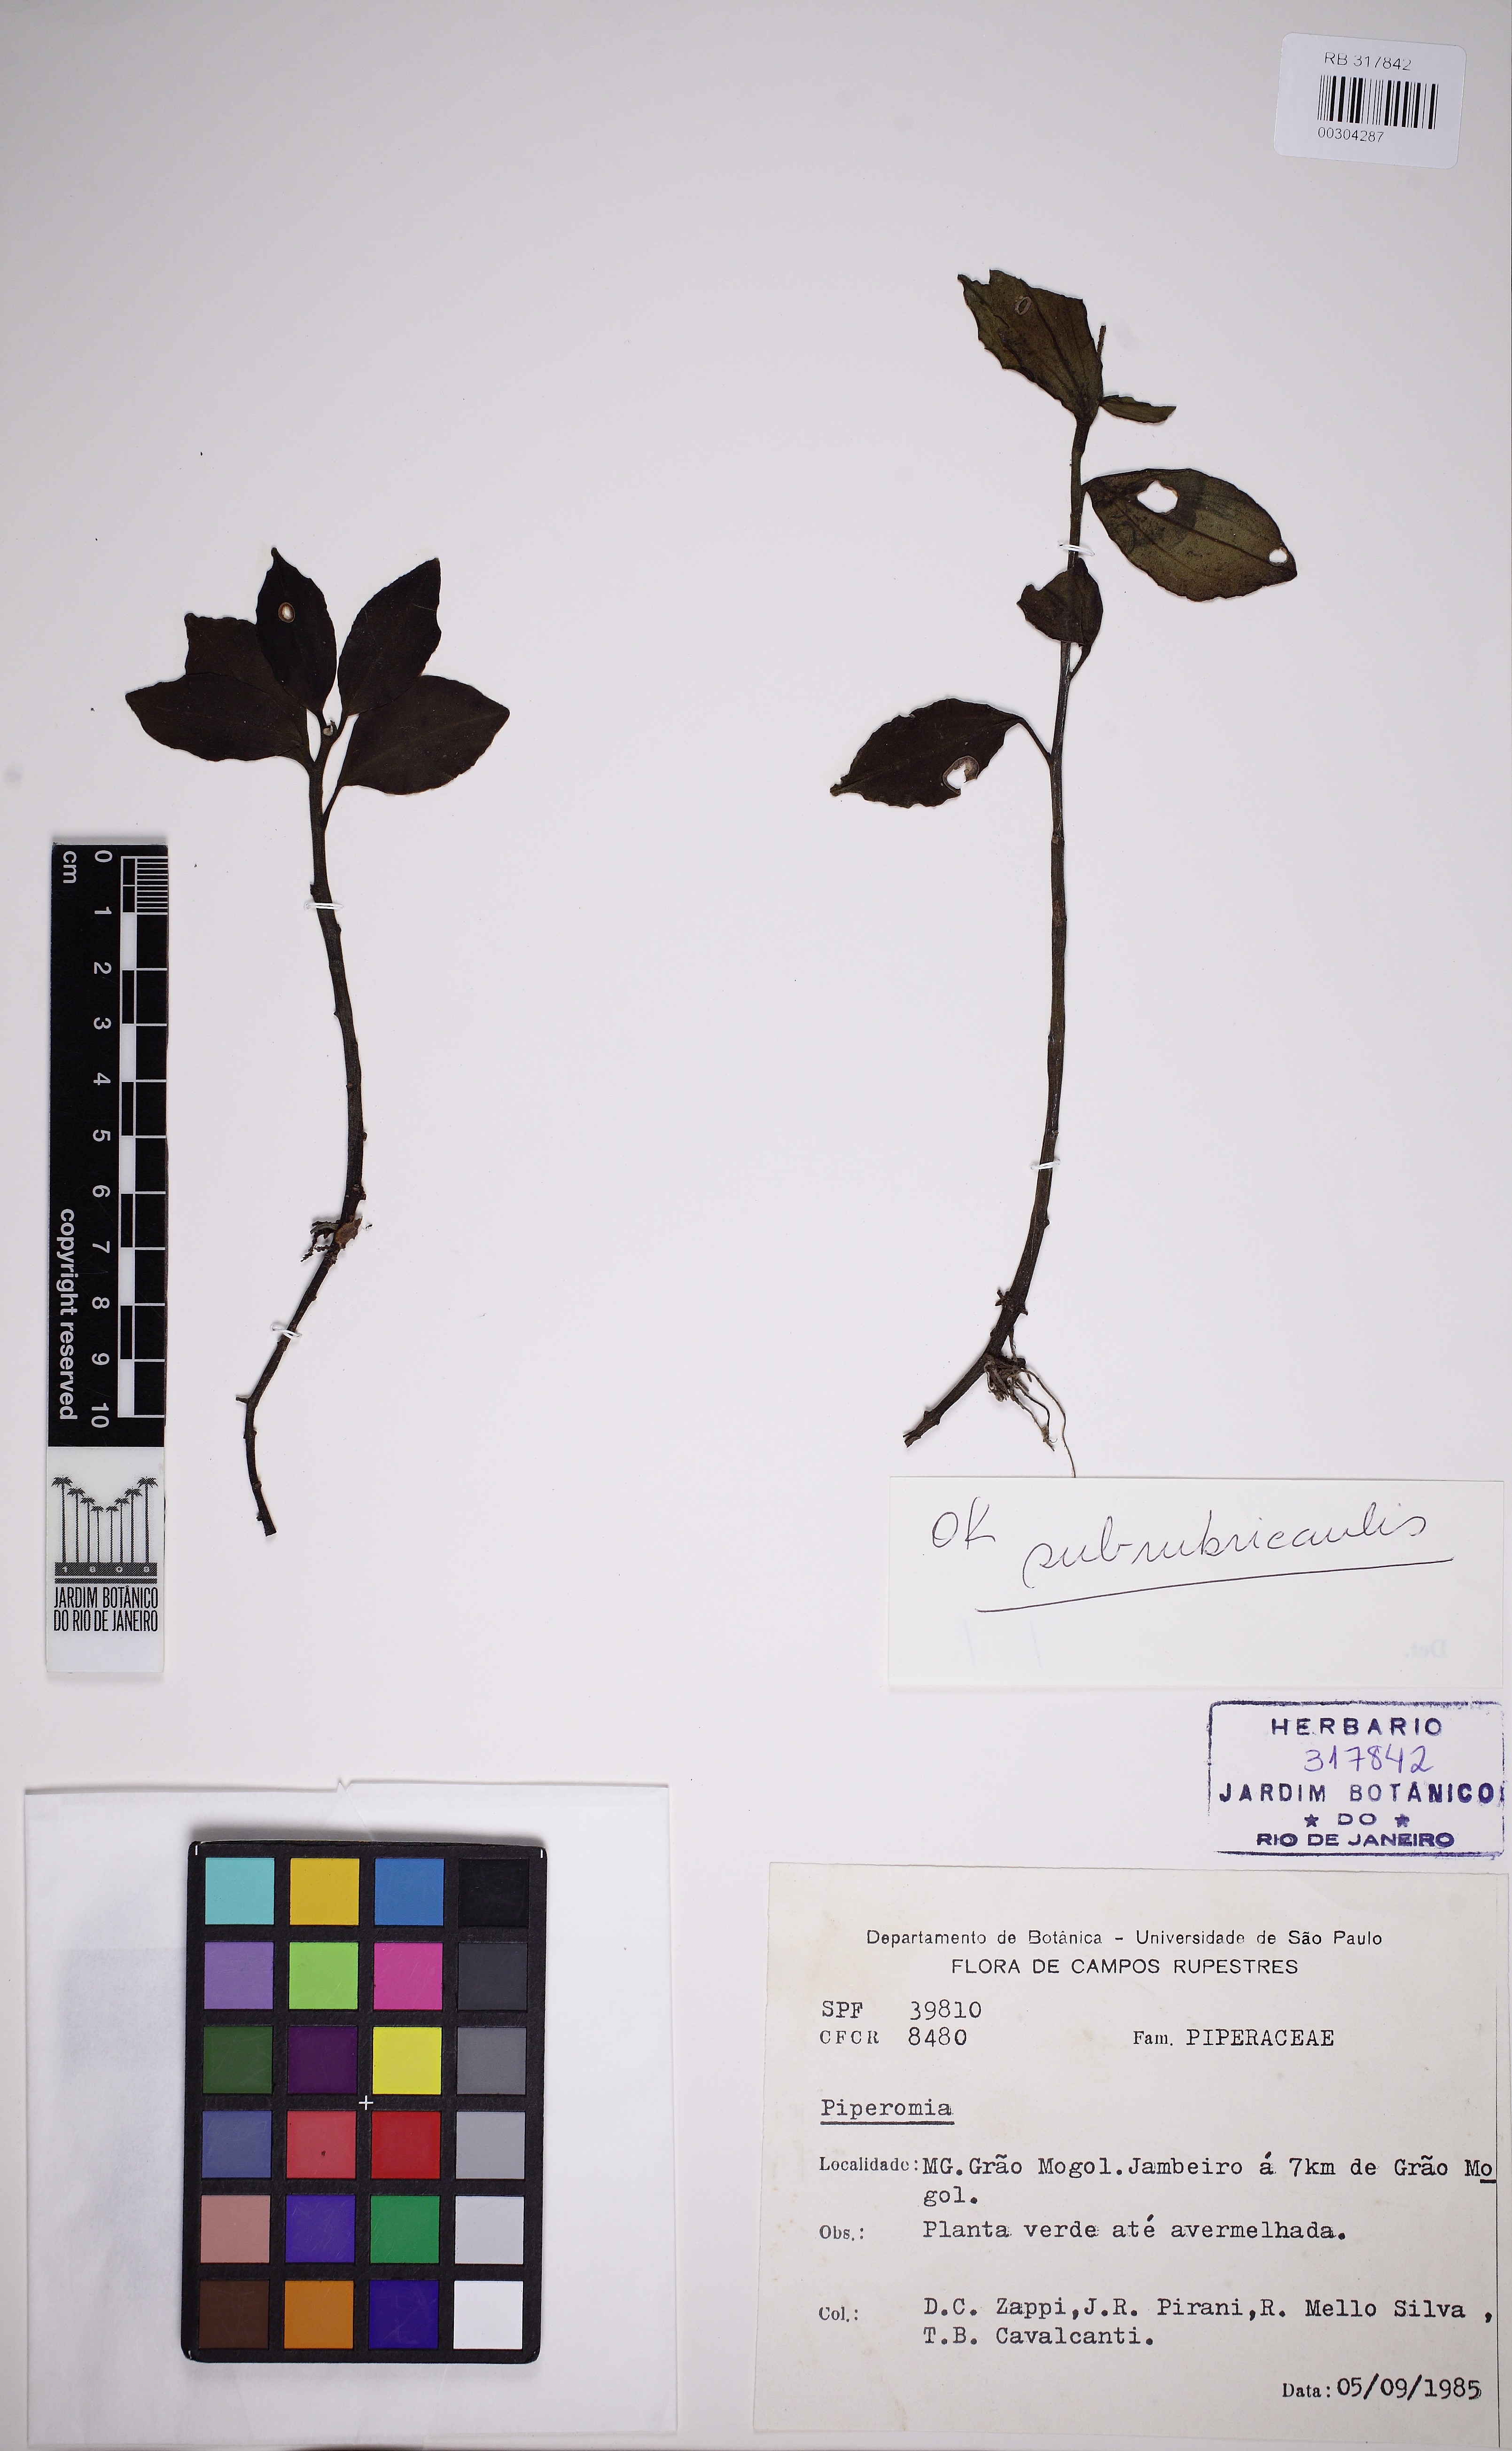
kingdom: Plantae
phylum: Tracheophyta
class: Magnoliopsida
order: Piperales
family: Piperaceae
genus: Peperomia
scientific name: Peperomia subrubricaulis
